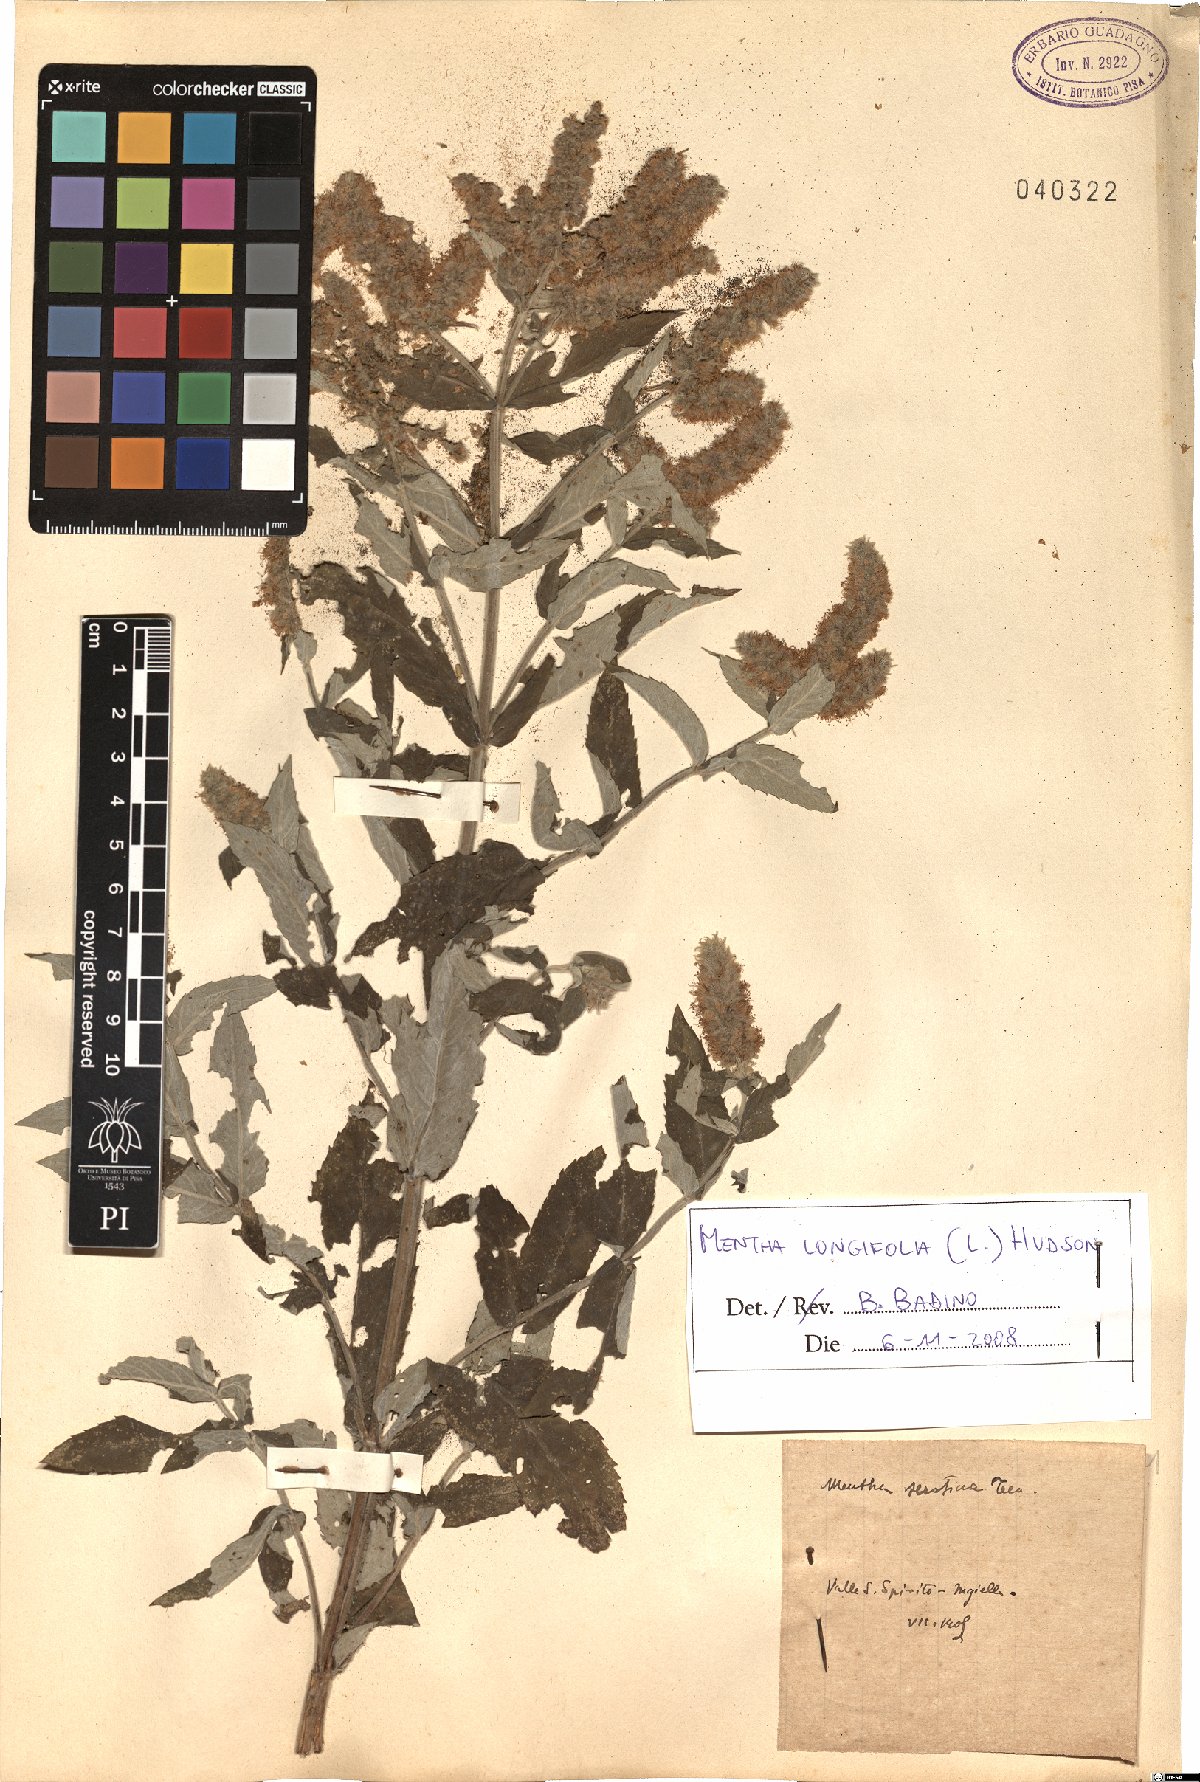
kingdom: Plantae
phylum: Tracheophyta
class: Magnoliopsida
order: Lamiales
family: Lamiaceae
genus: Mentha
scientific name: Mentha longifolia
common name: Horse mint
